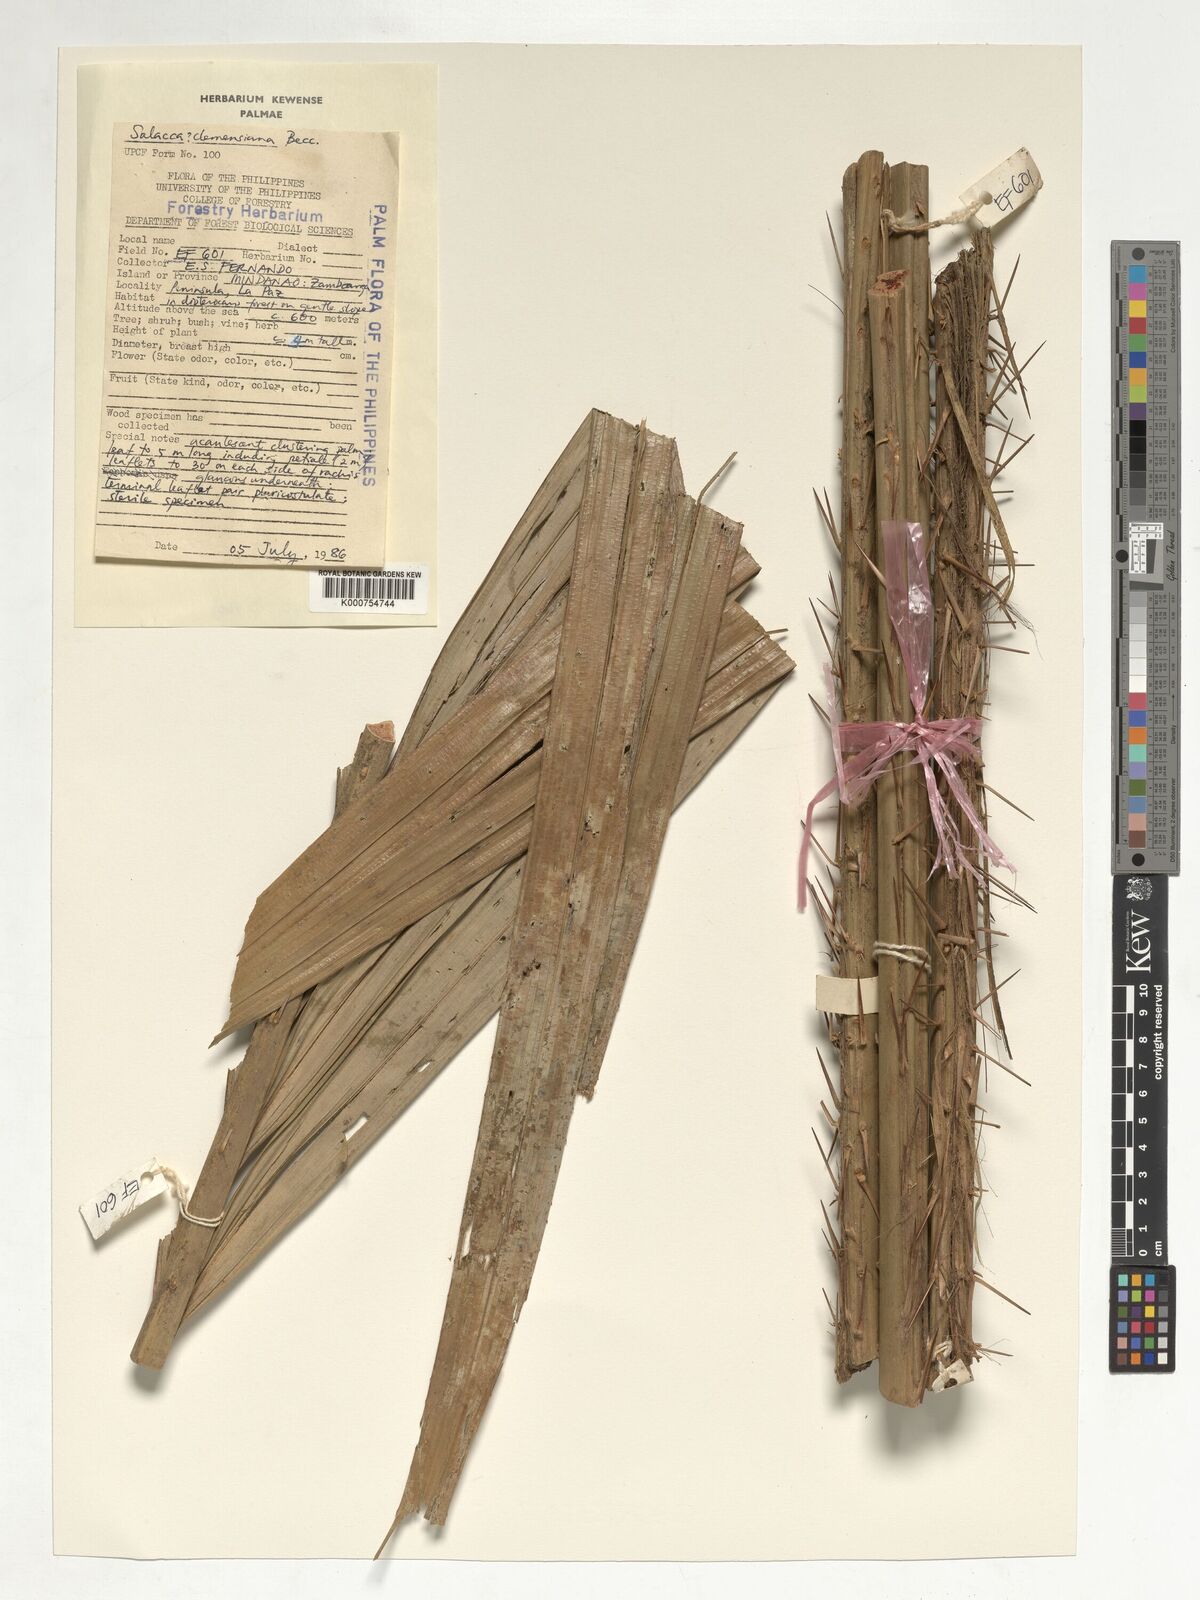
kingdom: Plantae
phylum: Tracheophyta
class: Liliopsida
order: Arecales
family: Arecaceae
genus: Salacca
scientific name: Salacca clemensiana
